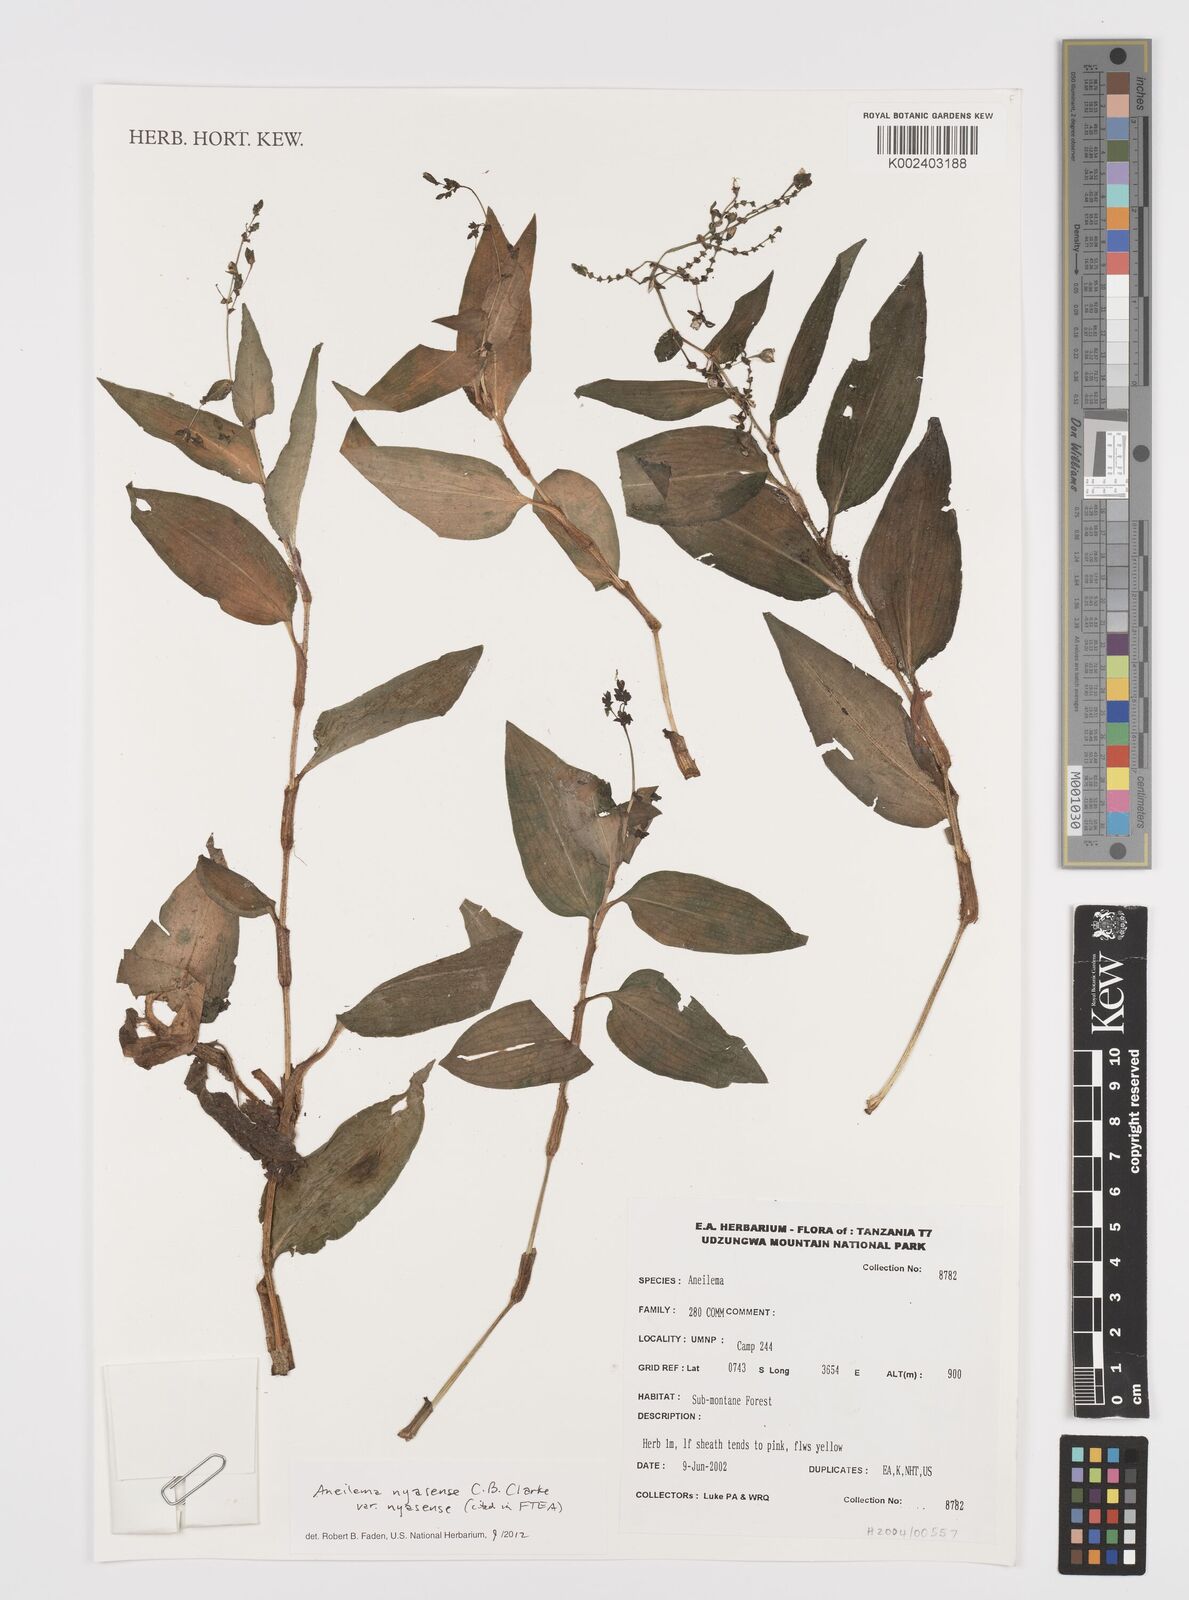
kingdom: Plantae
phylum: Tracheophyta
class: Liliopsida
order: Commelinales
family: Commelinaceae
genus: Aneilema
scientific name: Aneilema nyasense
